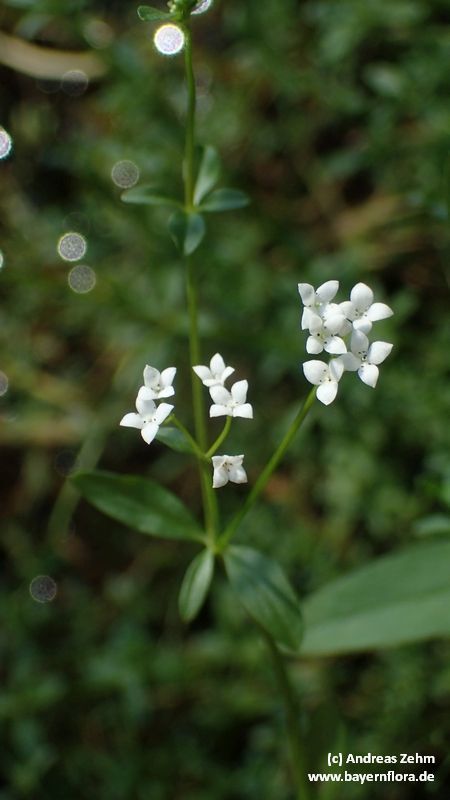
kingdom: Plantae
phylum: Tracheophyta
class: Magnoliopsida
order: Gentianales
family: Rubiaceae
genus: Galium
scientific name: Galium palustre
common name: Common marsh-bedstraw
